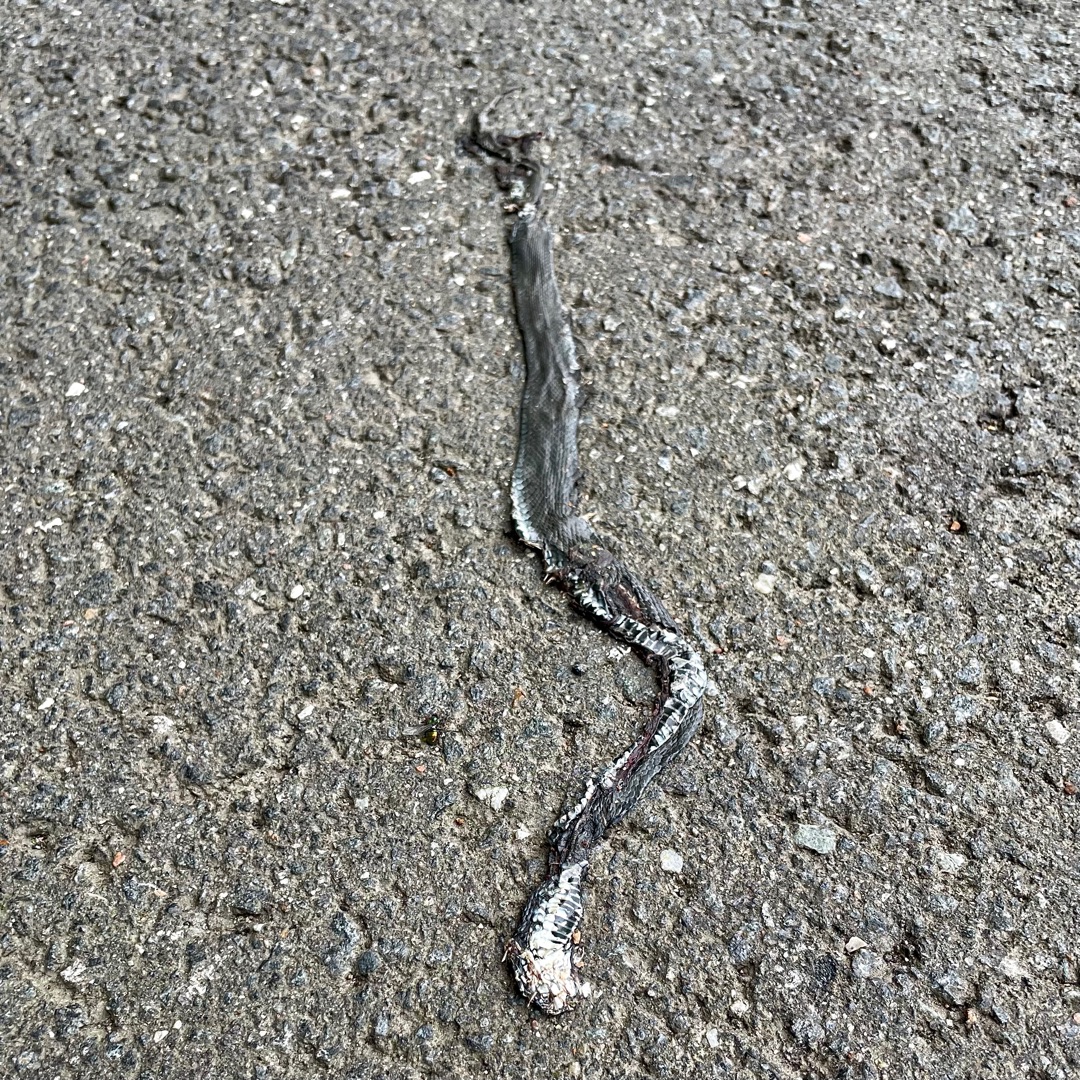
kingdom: Animalia
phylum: Chordata
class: Squamata
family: Colubridae
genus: Natrix
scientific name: Natrix natrix
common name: Snog
